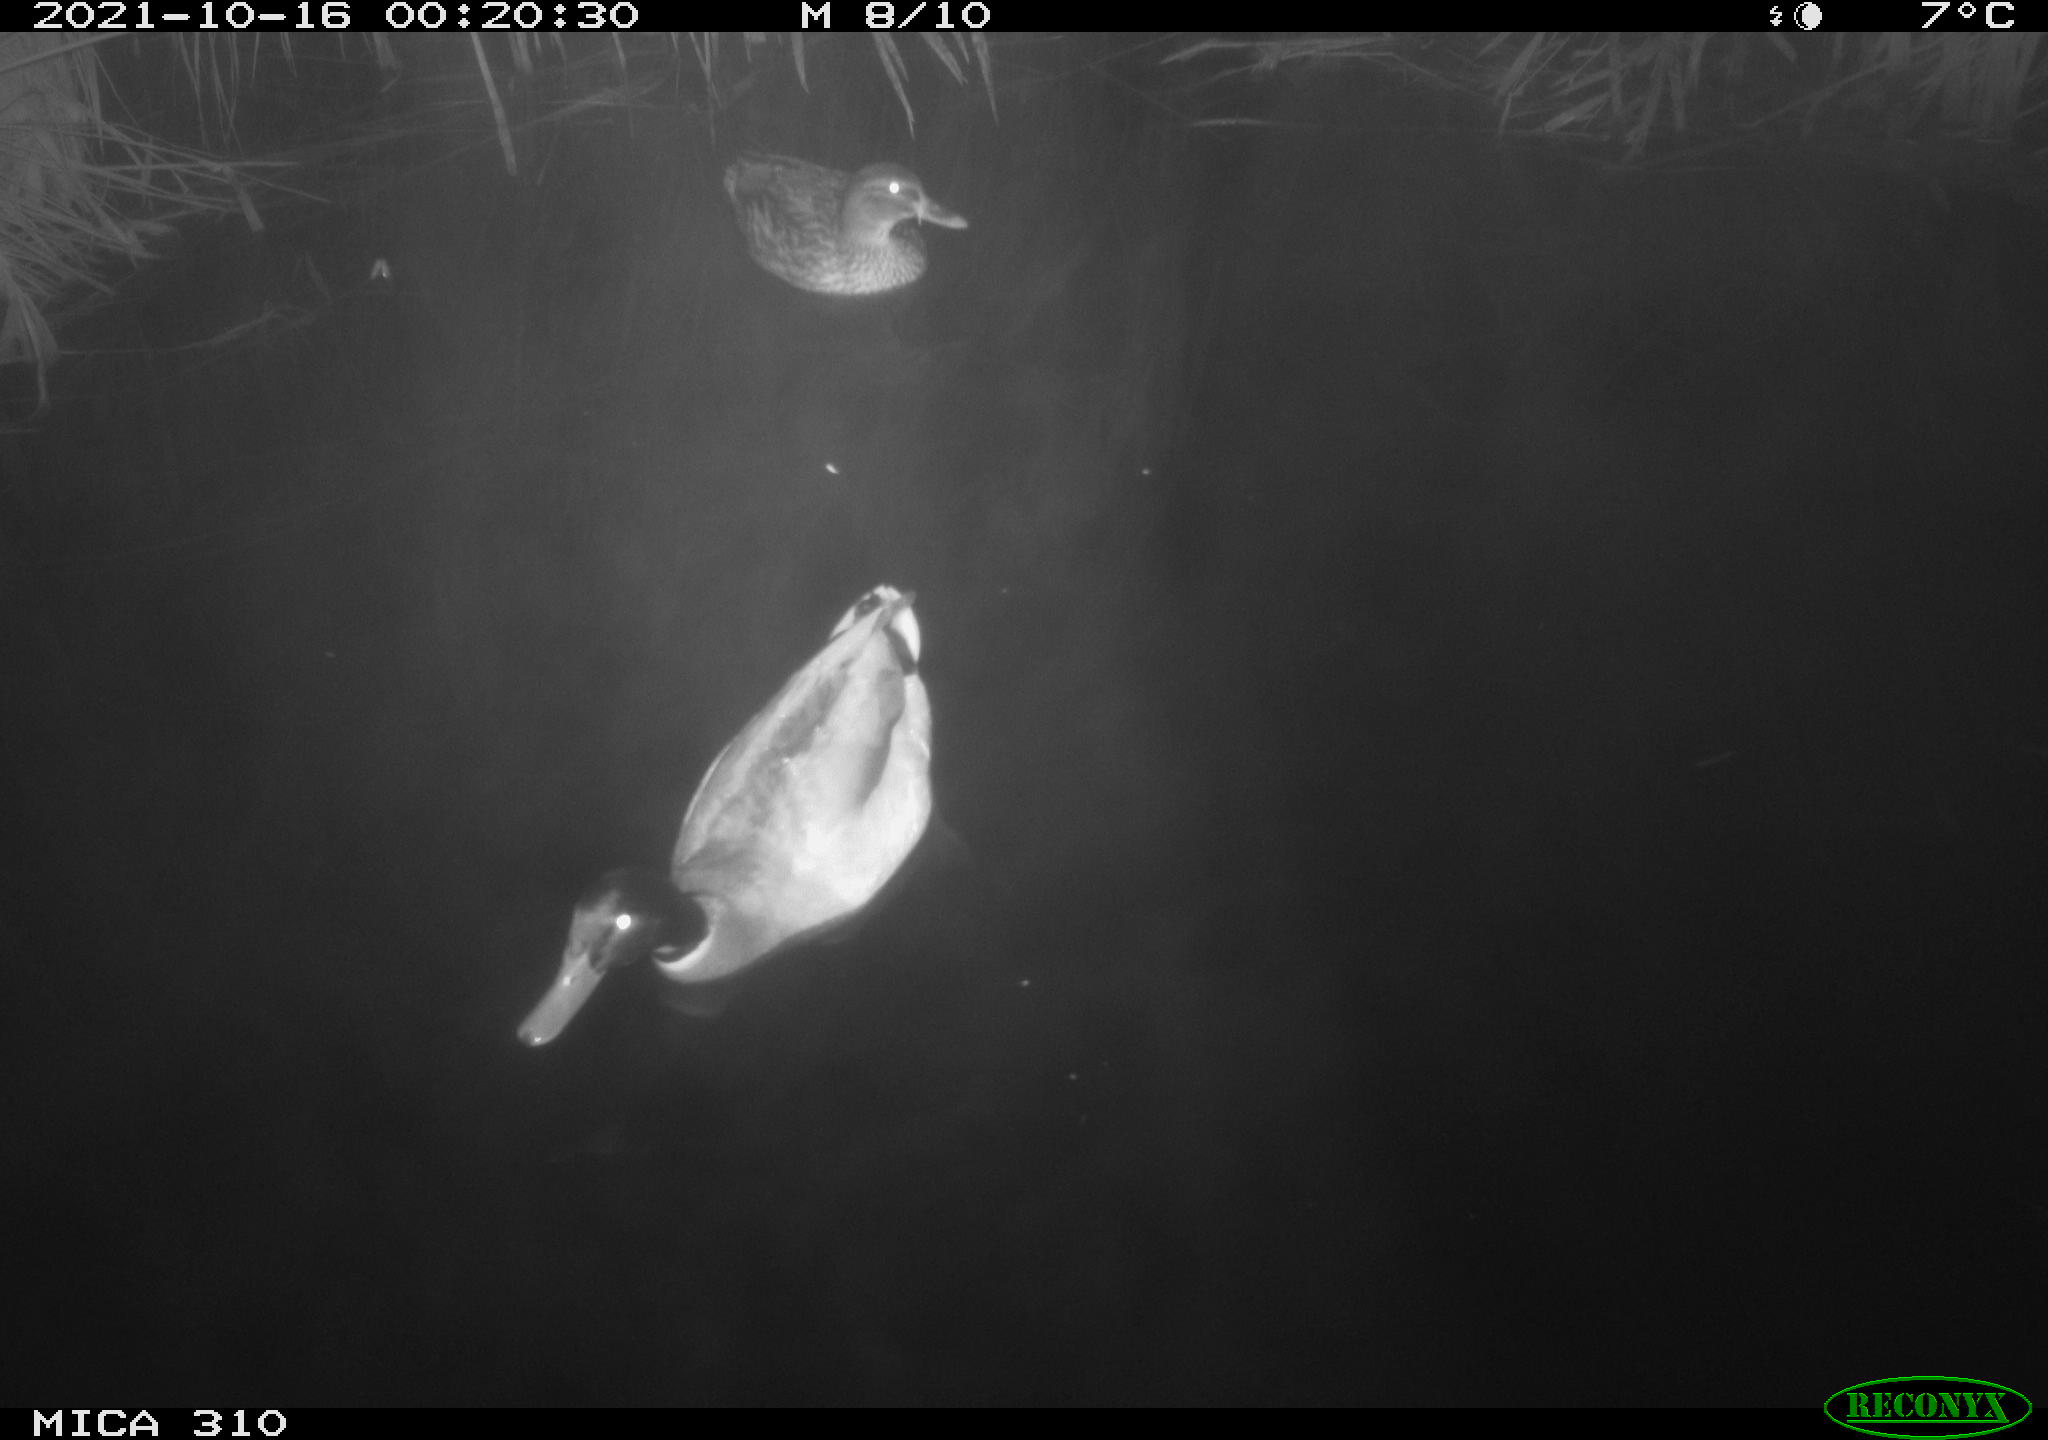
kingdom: Animalia
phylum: Chordata
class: Aves
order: Anseriformes
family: Anatidae
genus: Mareca
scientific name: Mareca strepera
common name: Gadwall
